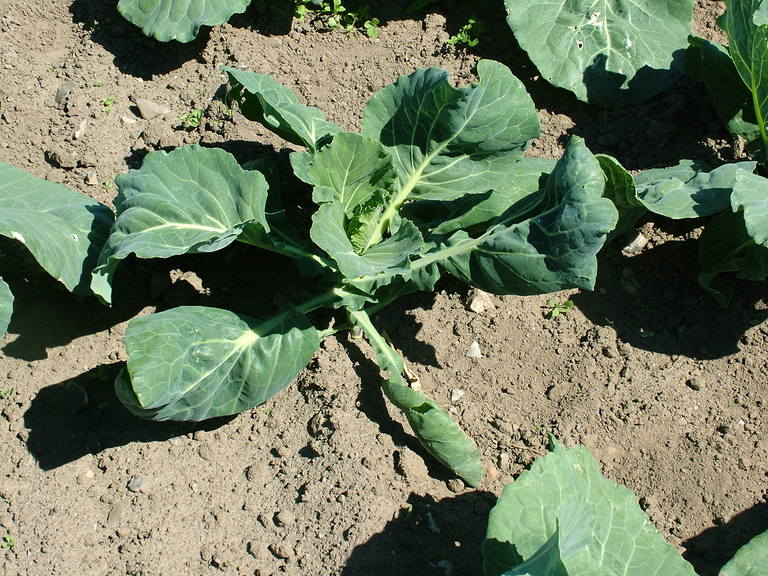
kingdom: Plantae
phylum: Tracheophyta
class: Magnoliopsida
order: Brassicales
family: Brassicaceae
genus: Brassica
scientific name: Brassica oleracea
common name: Cabbage
